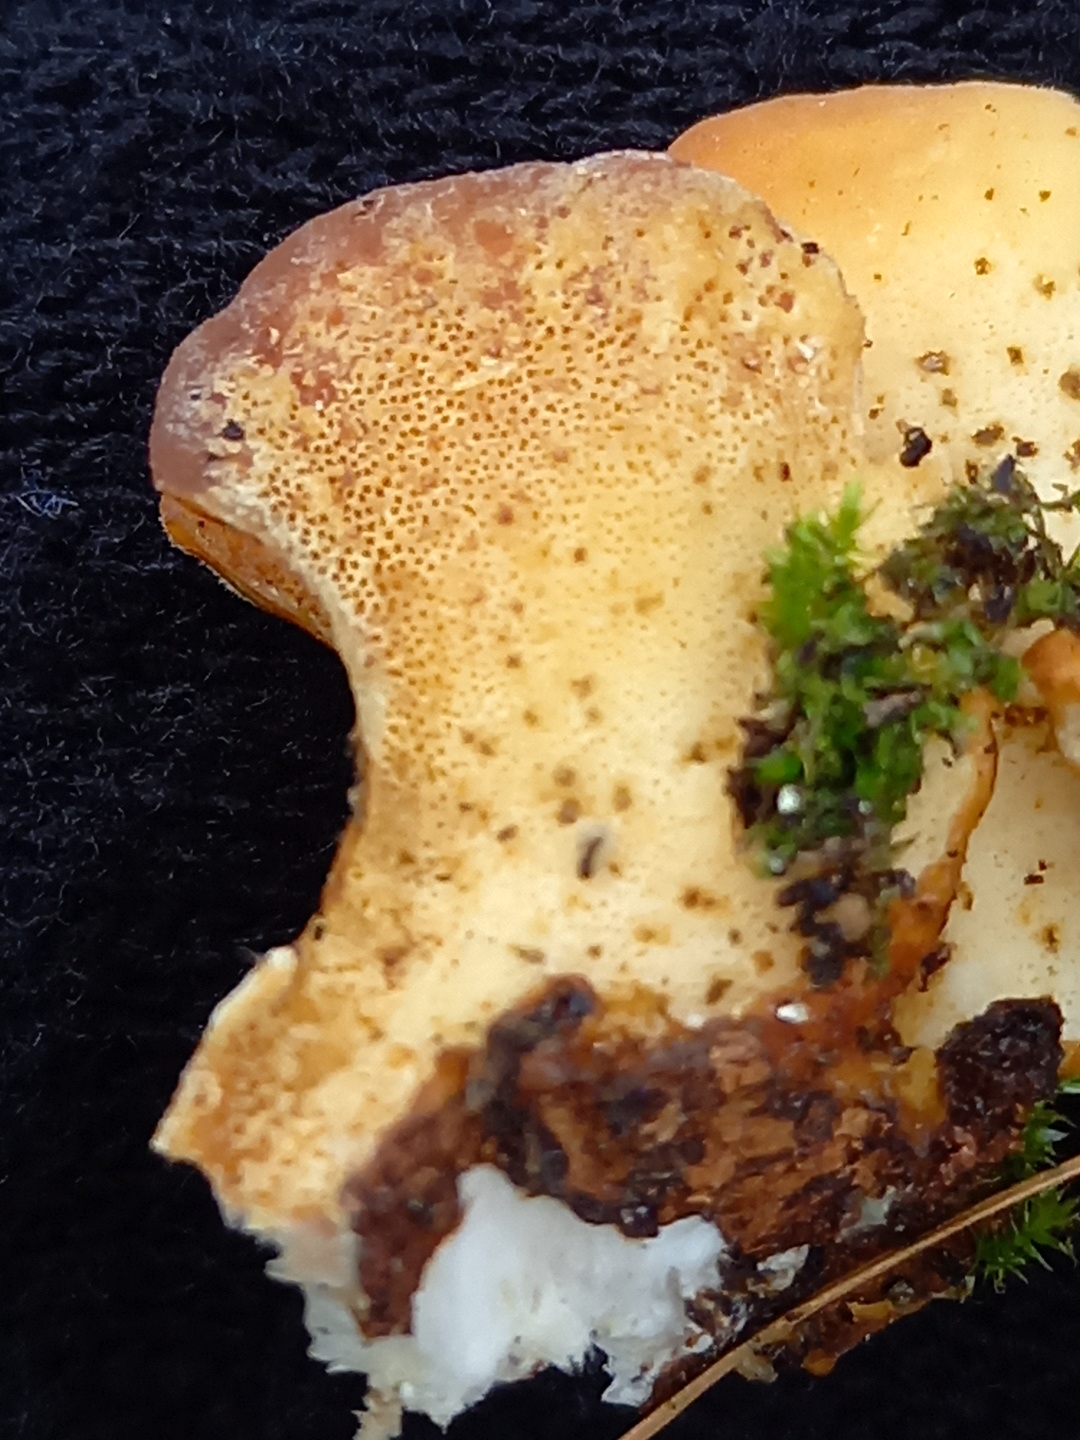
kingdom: Fungi
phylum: Basidiomycota
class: Agaricomycetes
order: Polyporales
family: Polyporaceae
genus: Trametes
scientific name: Trametes ochracea
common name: bæltet læderporesvamp
